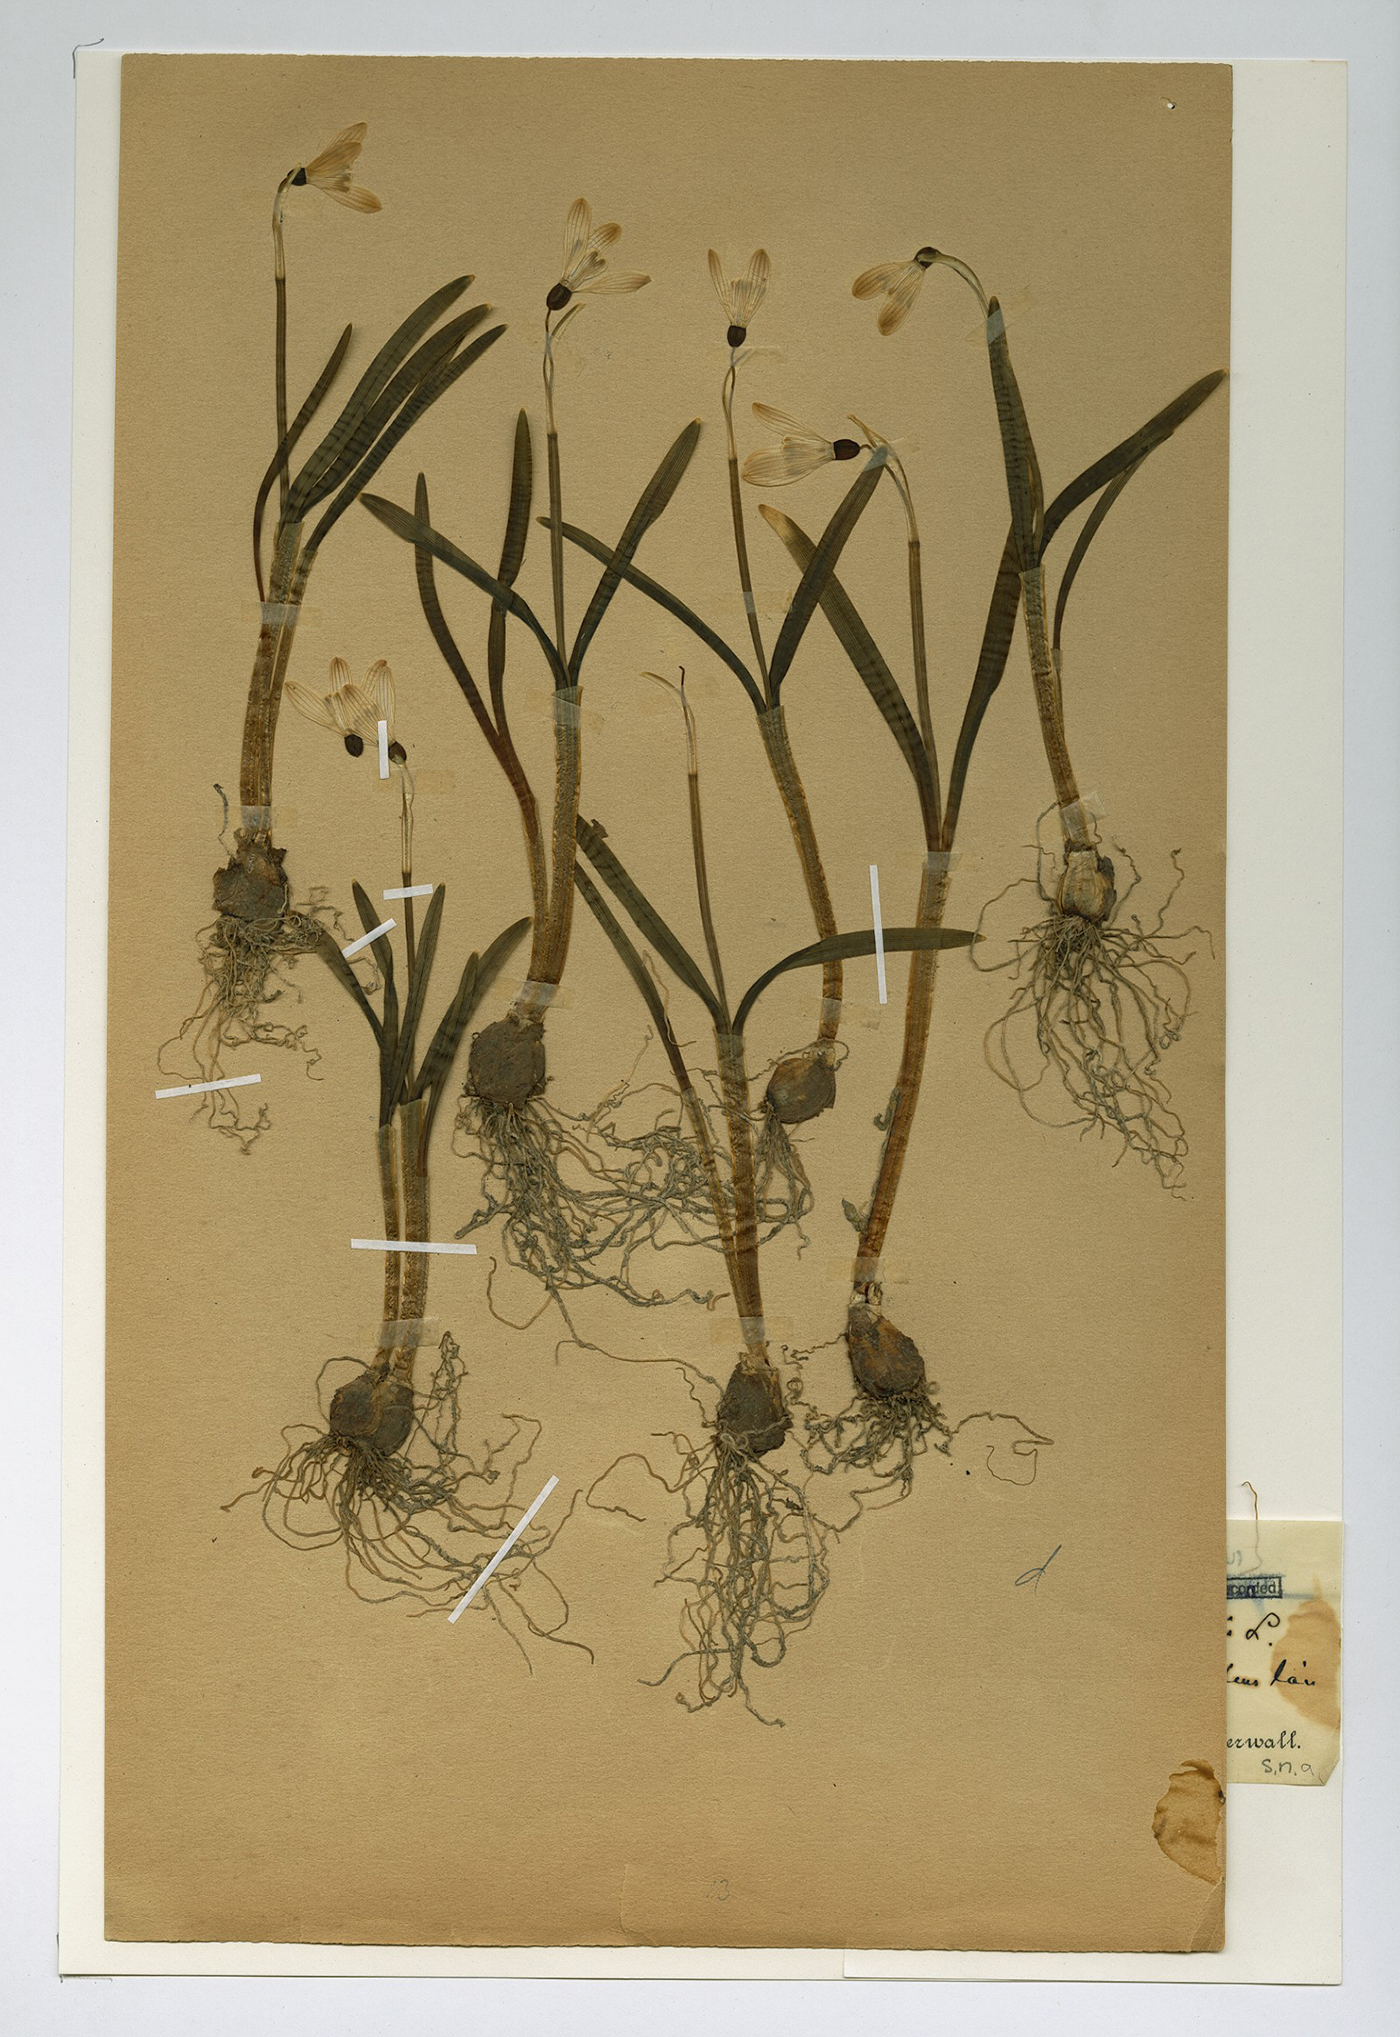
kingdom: Plantae
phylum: Tracheophyta
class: Liliopsida
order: Asparagales
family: Amaryllidaceae
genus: Galanthus
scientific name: Galanthus nivalis
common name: Snowdrop
